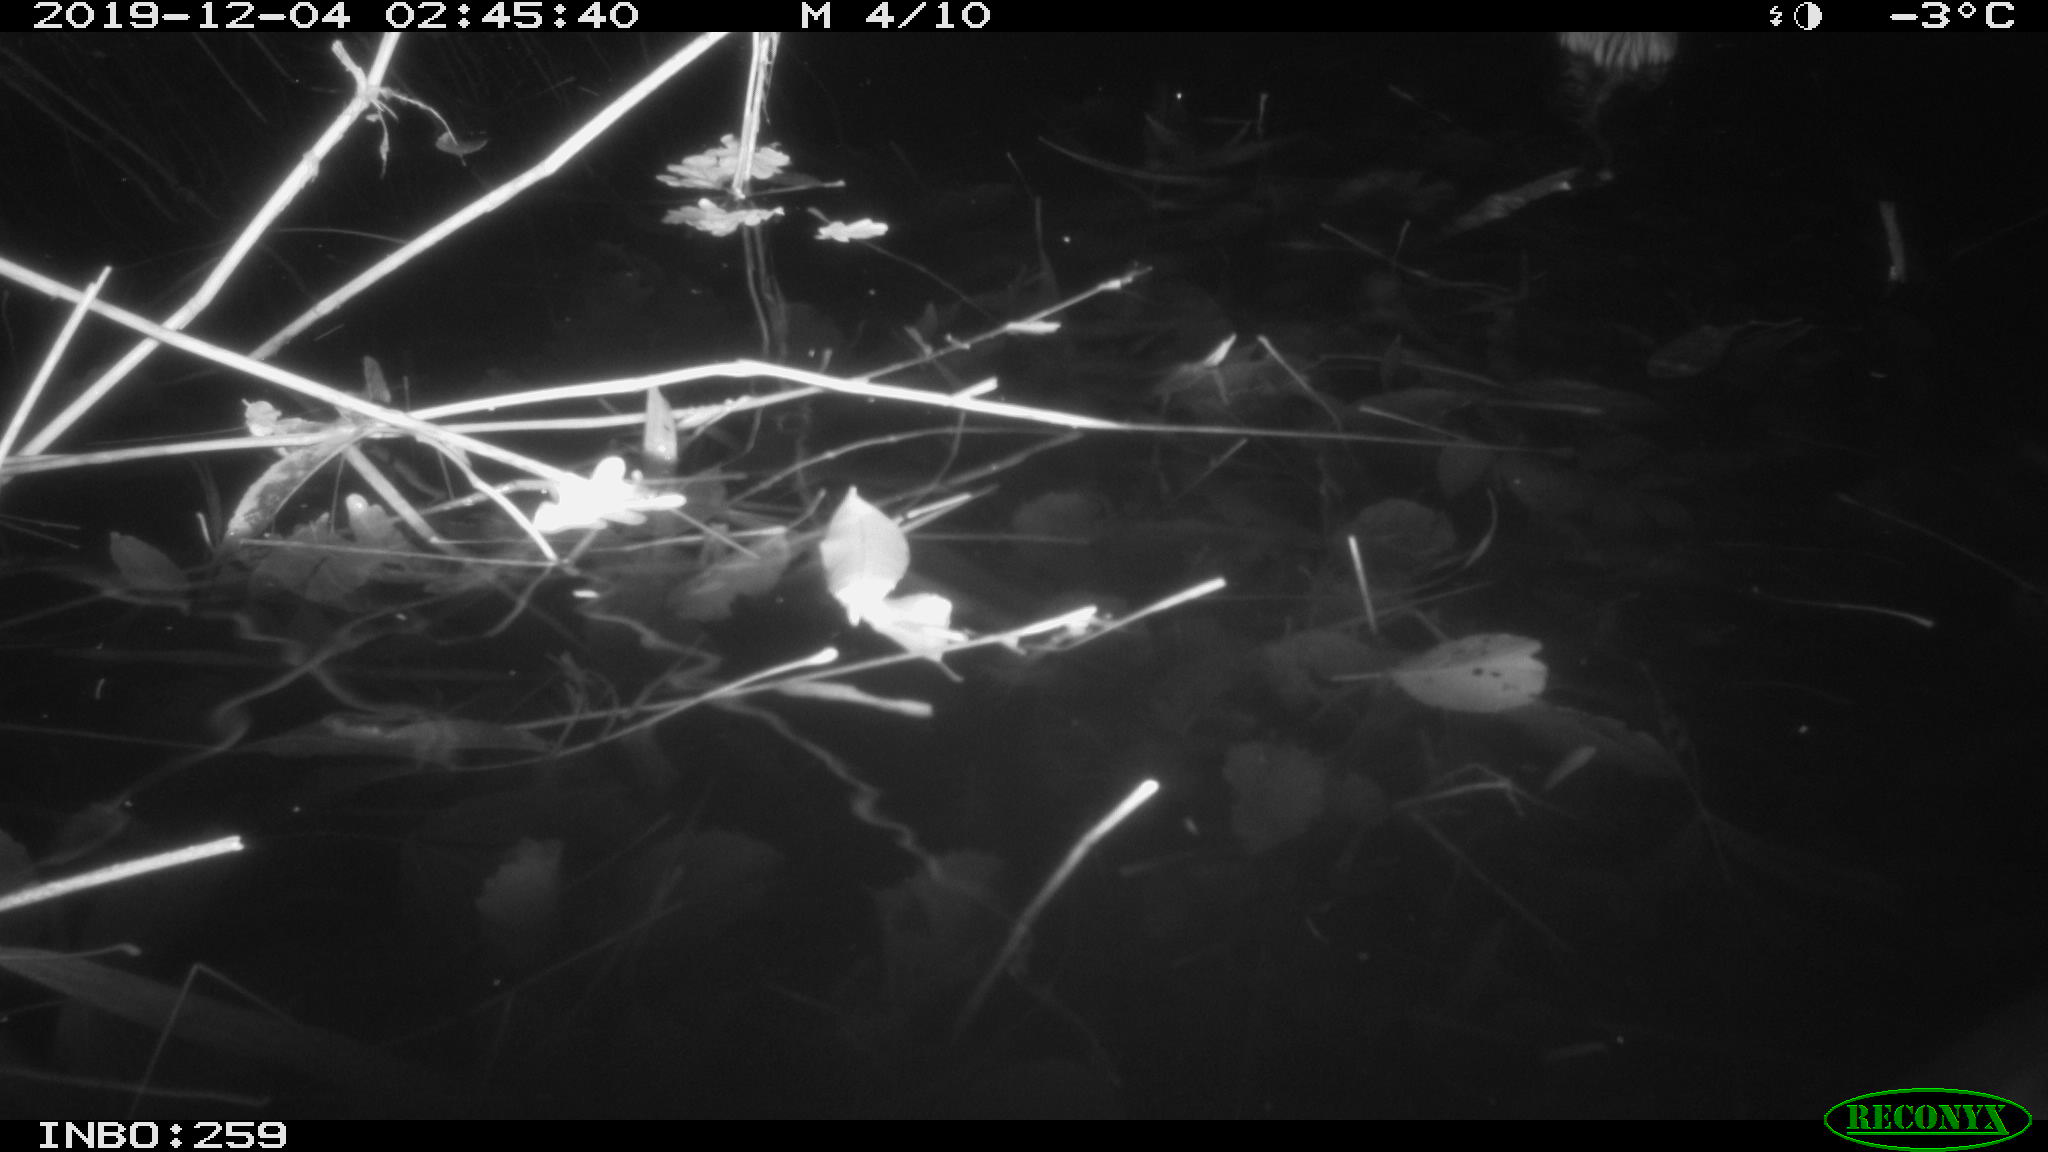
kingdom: Animalia
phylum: Chordata
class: Mammalia
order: Rodentia
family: Cricetidae
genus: Ondatra
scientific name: Ondatra zibethicus
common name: Muskrat
